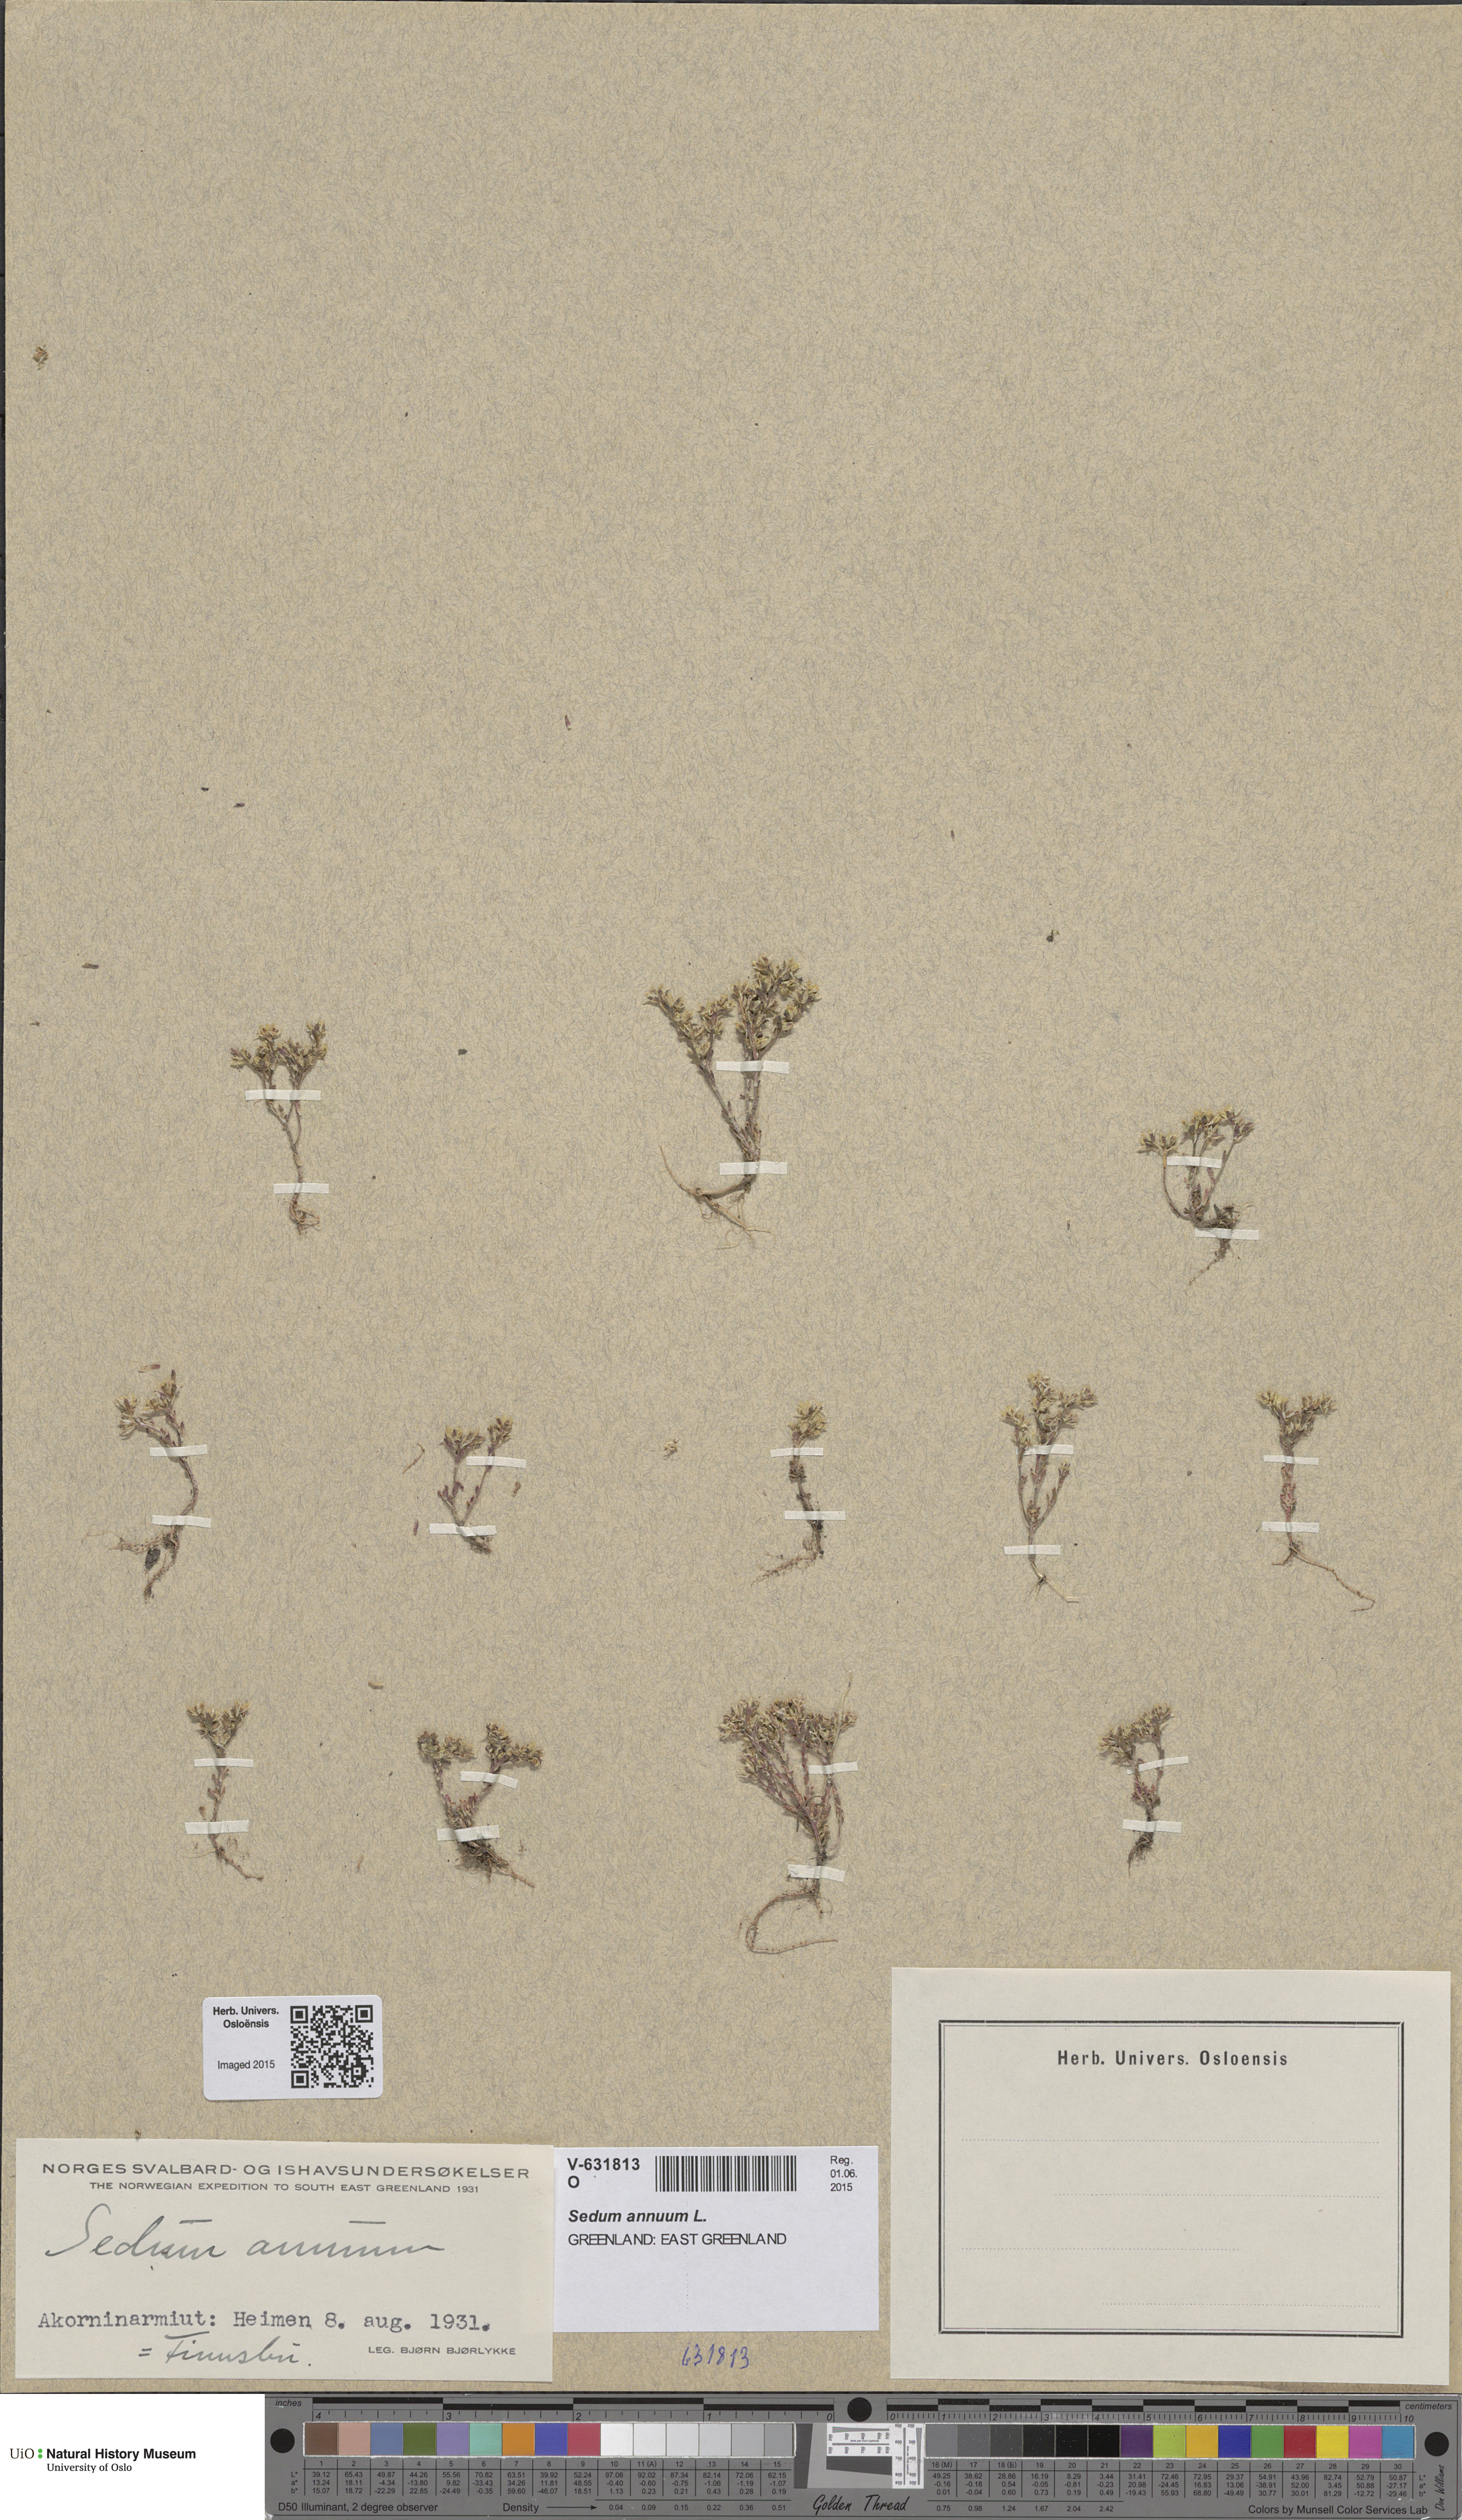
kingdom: Plantae
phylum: Tracheophyta
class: Magnoliopsida
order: Saxifragales
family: Crassulaceae
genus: Sedum
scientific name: Sedum annuum
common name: Annual stonecrop
